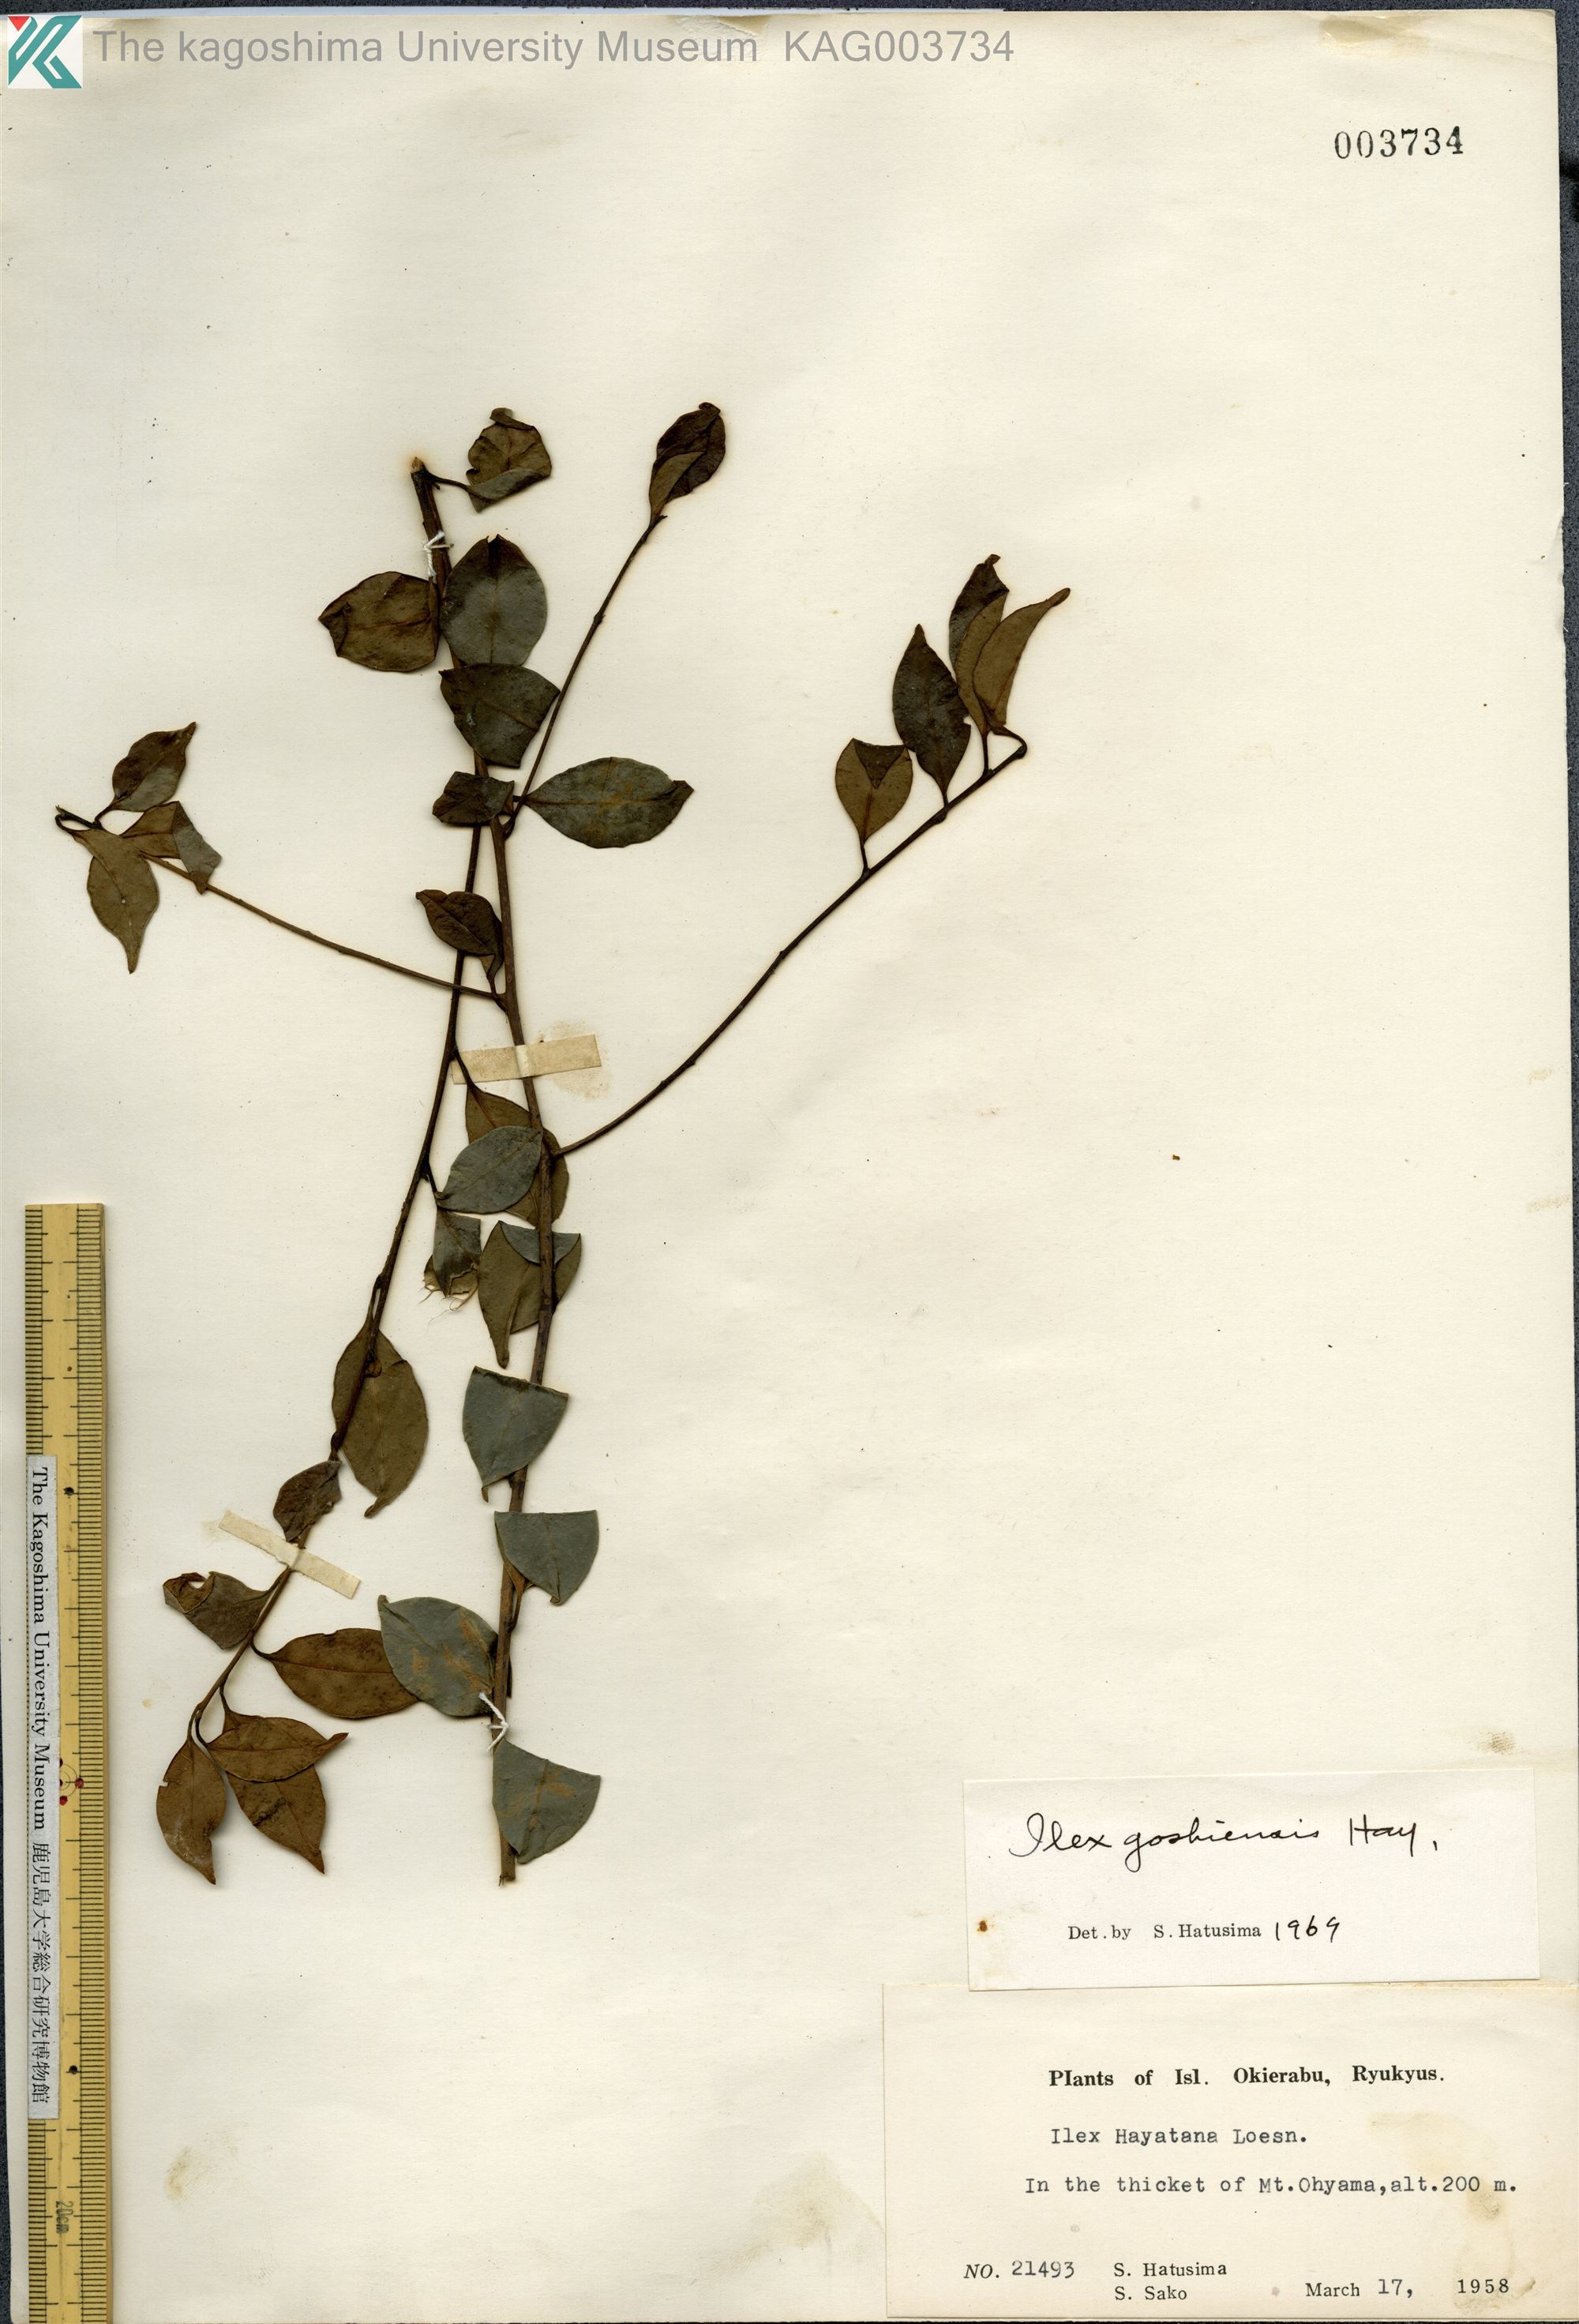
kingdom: Plantae
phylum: Tracheophyta
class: Magnoliopsida
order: Aquifoliales
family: Aquifoliaceae
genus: Ilex
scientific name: Ilex goshiensis
